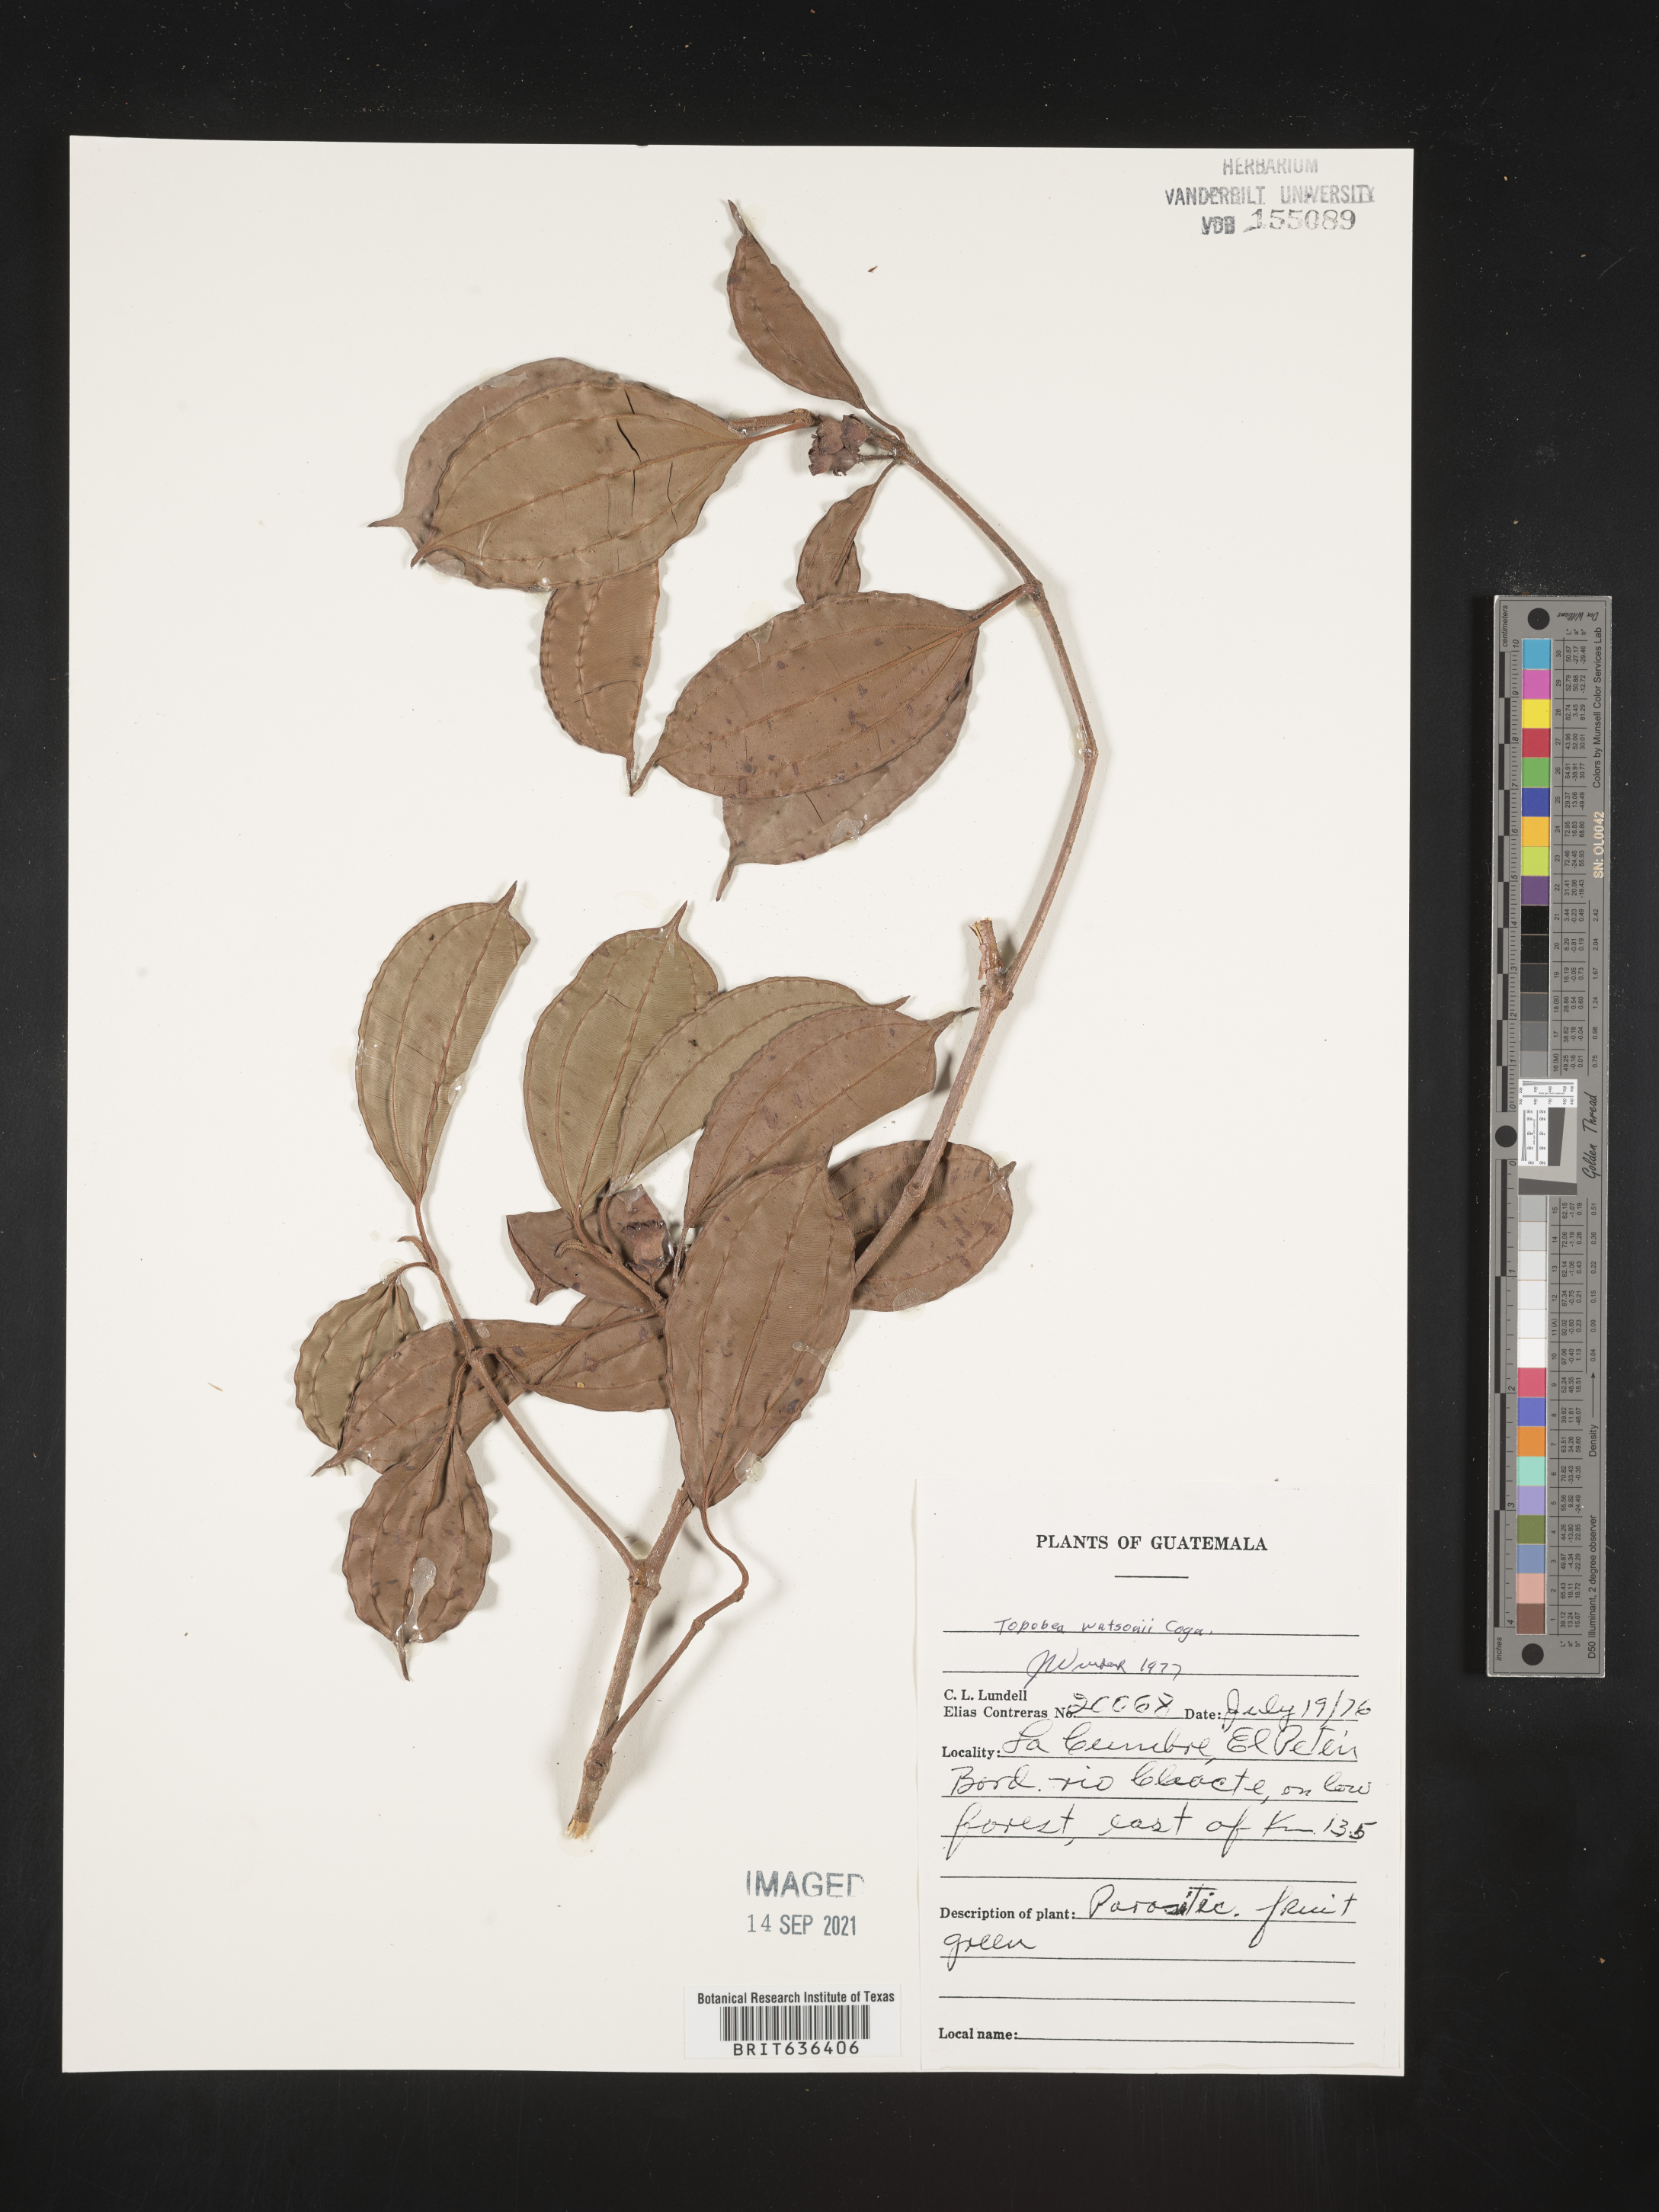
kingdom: Plantae
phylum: Tracheophyta
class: Magnoliopsida
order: Myrtales
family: Melastomataceae
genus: Blakea
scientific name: Blakea
